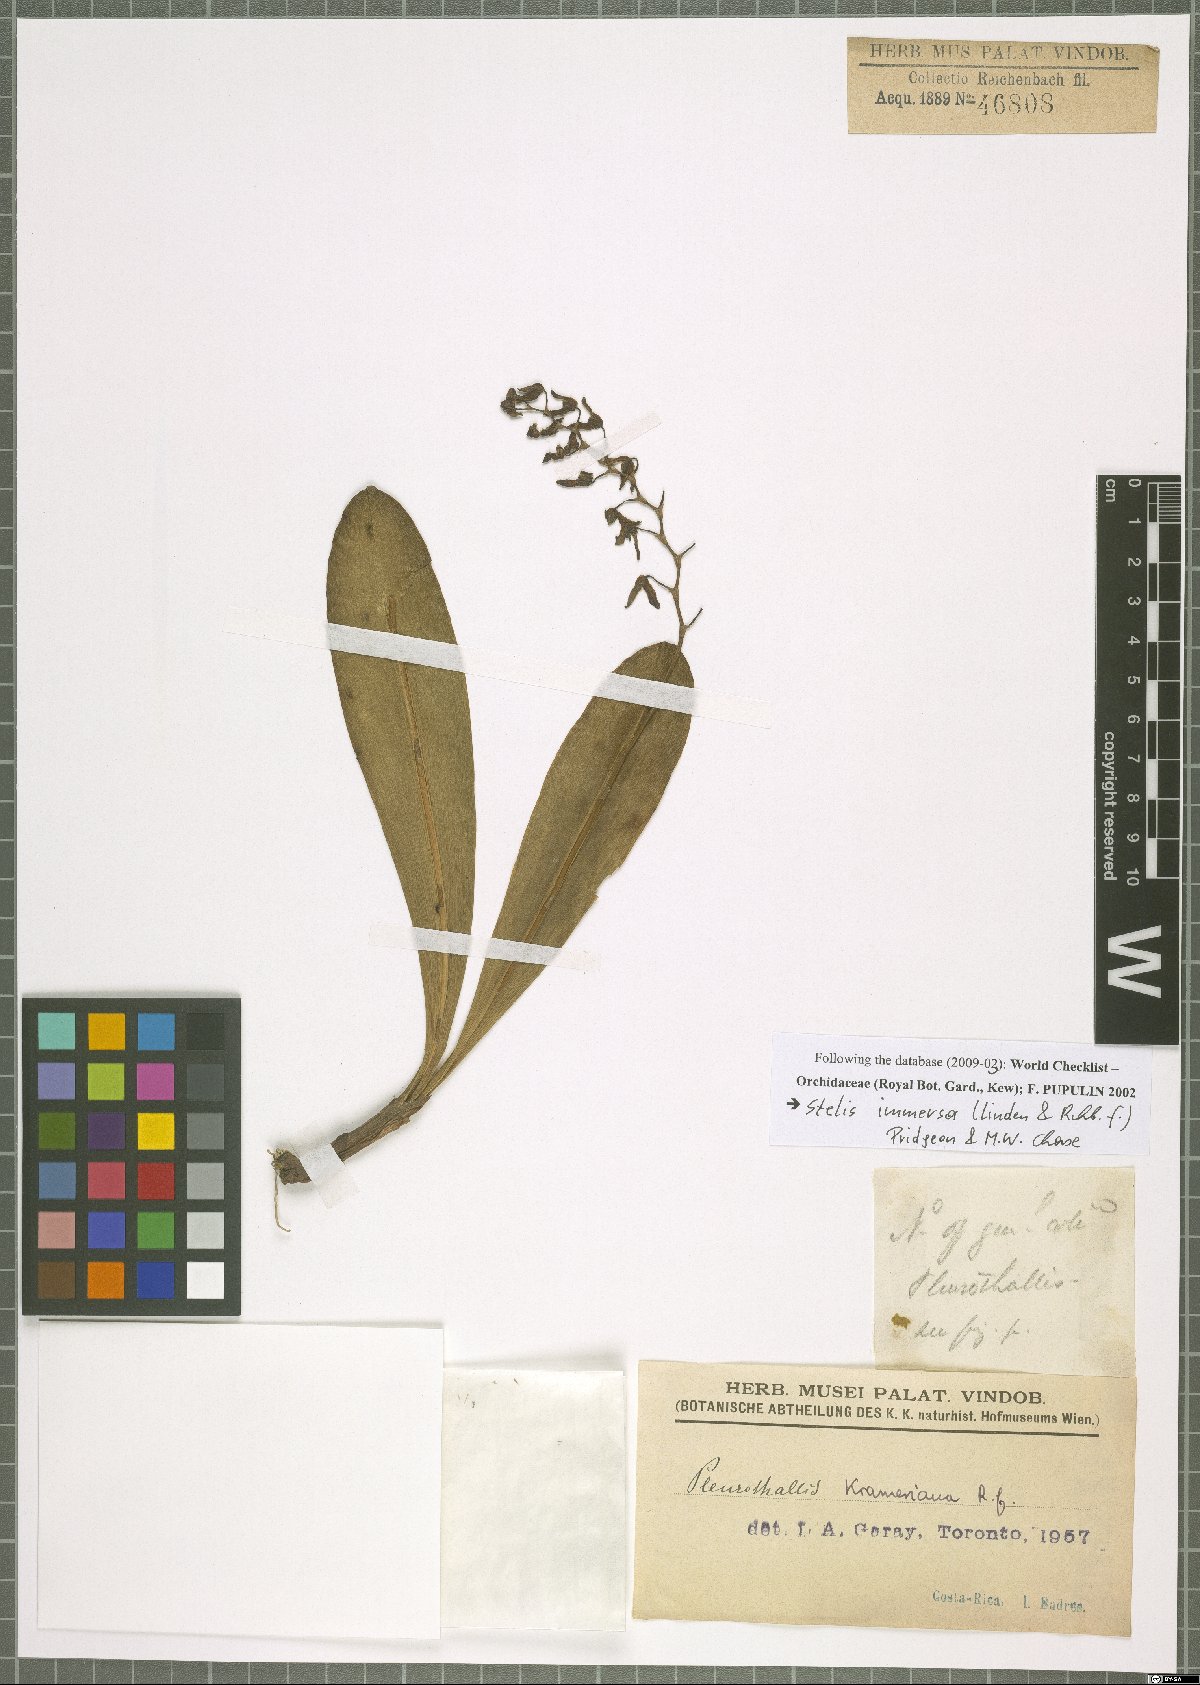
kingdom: Plantae
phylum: Tracheophyta
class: Liliopsida
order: Asparagales
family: Orchidaceae
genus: Stelis
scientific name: Stelis immersa
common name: Sunken pleurothallis
